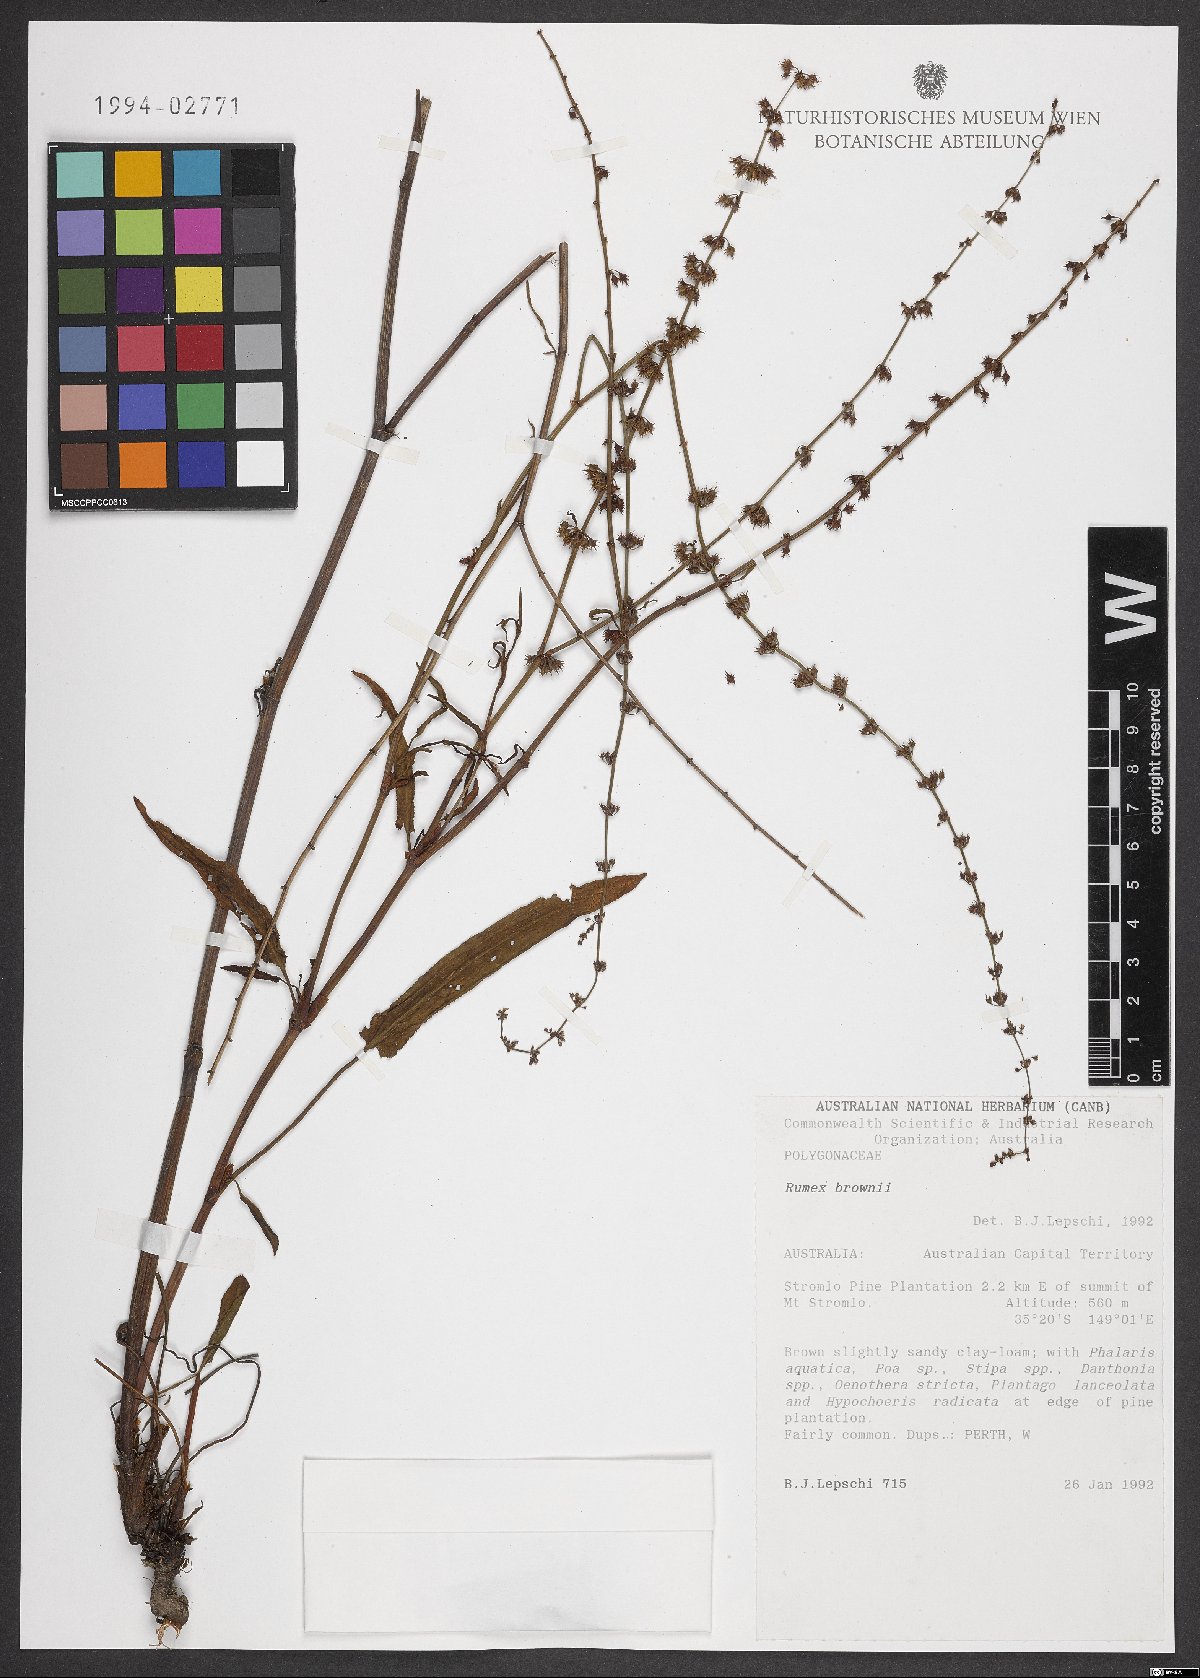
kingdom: Plantae
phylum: Tracheophyta
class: Magnoliopsida
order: Caryophyllales
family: Polygonaceae
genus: Rumex
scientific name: Rumex brownii
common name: Hooked dock
